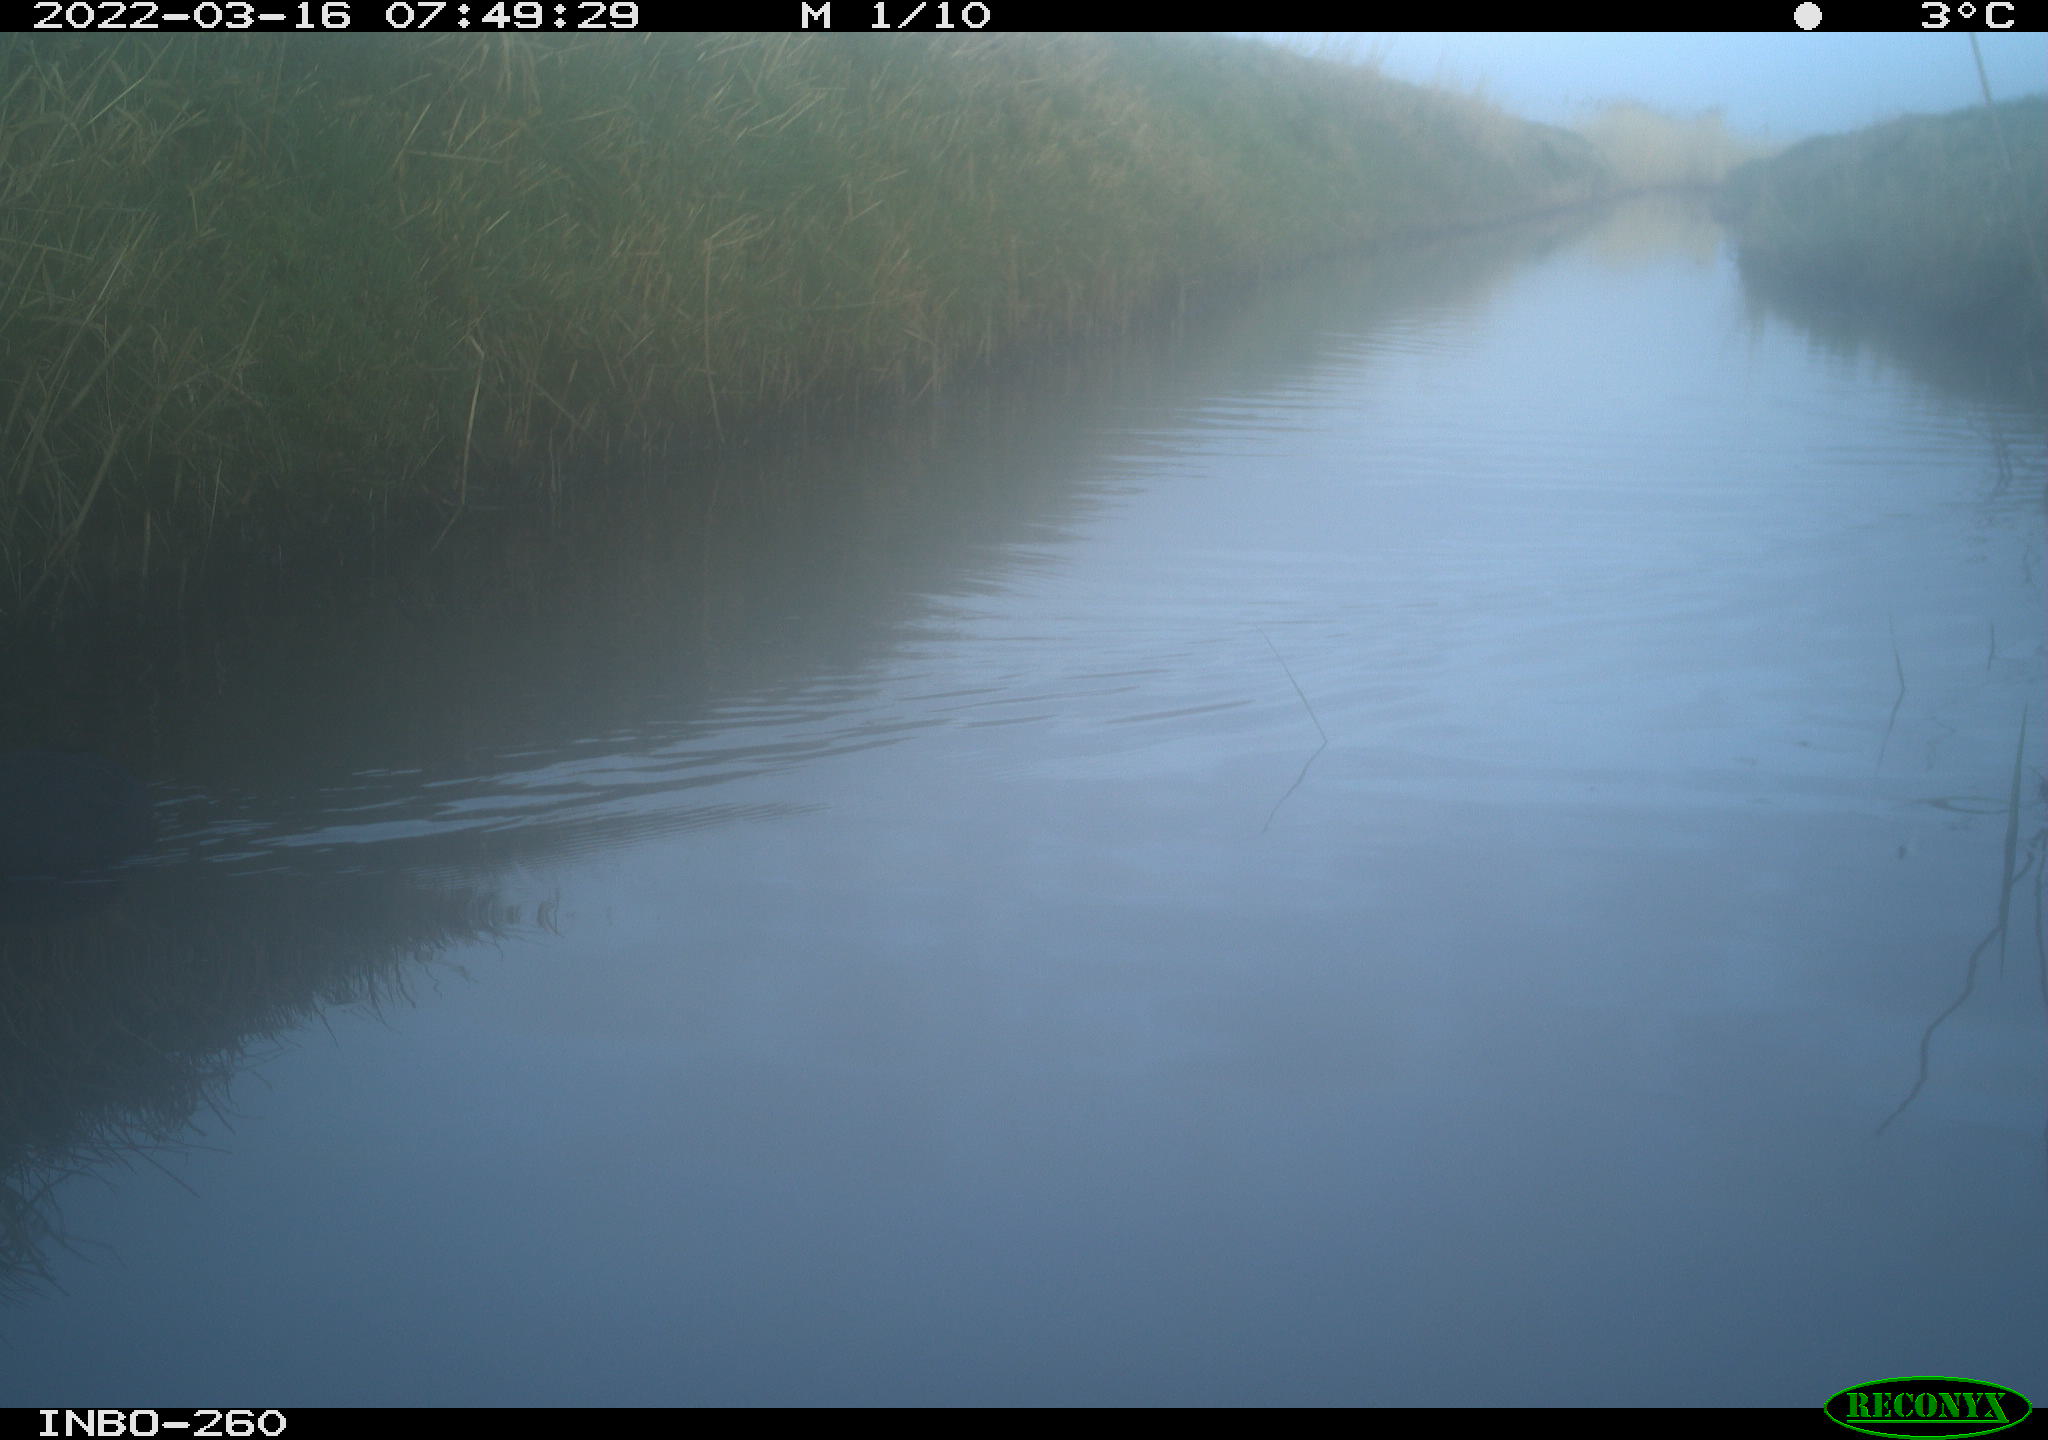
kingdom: Animalia
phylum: Chordata
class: Aves
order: Gruiformes
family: Rallidae
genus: Fulica
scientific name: Fulica atra
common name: Eurasian coot
